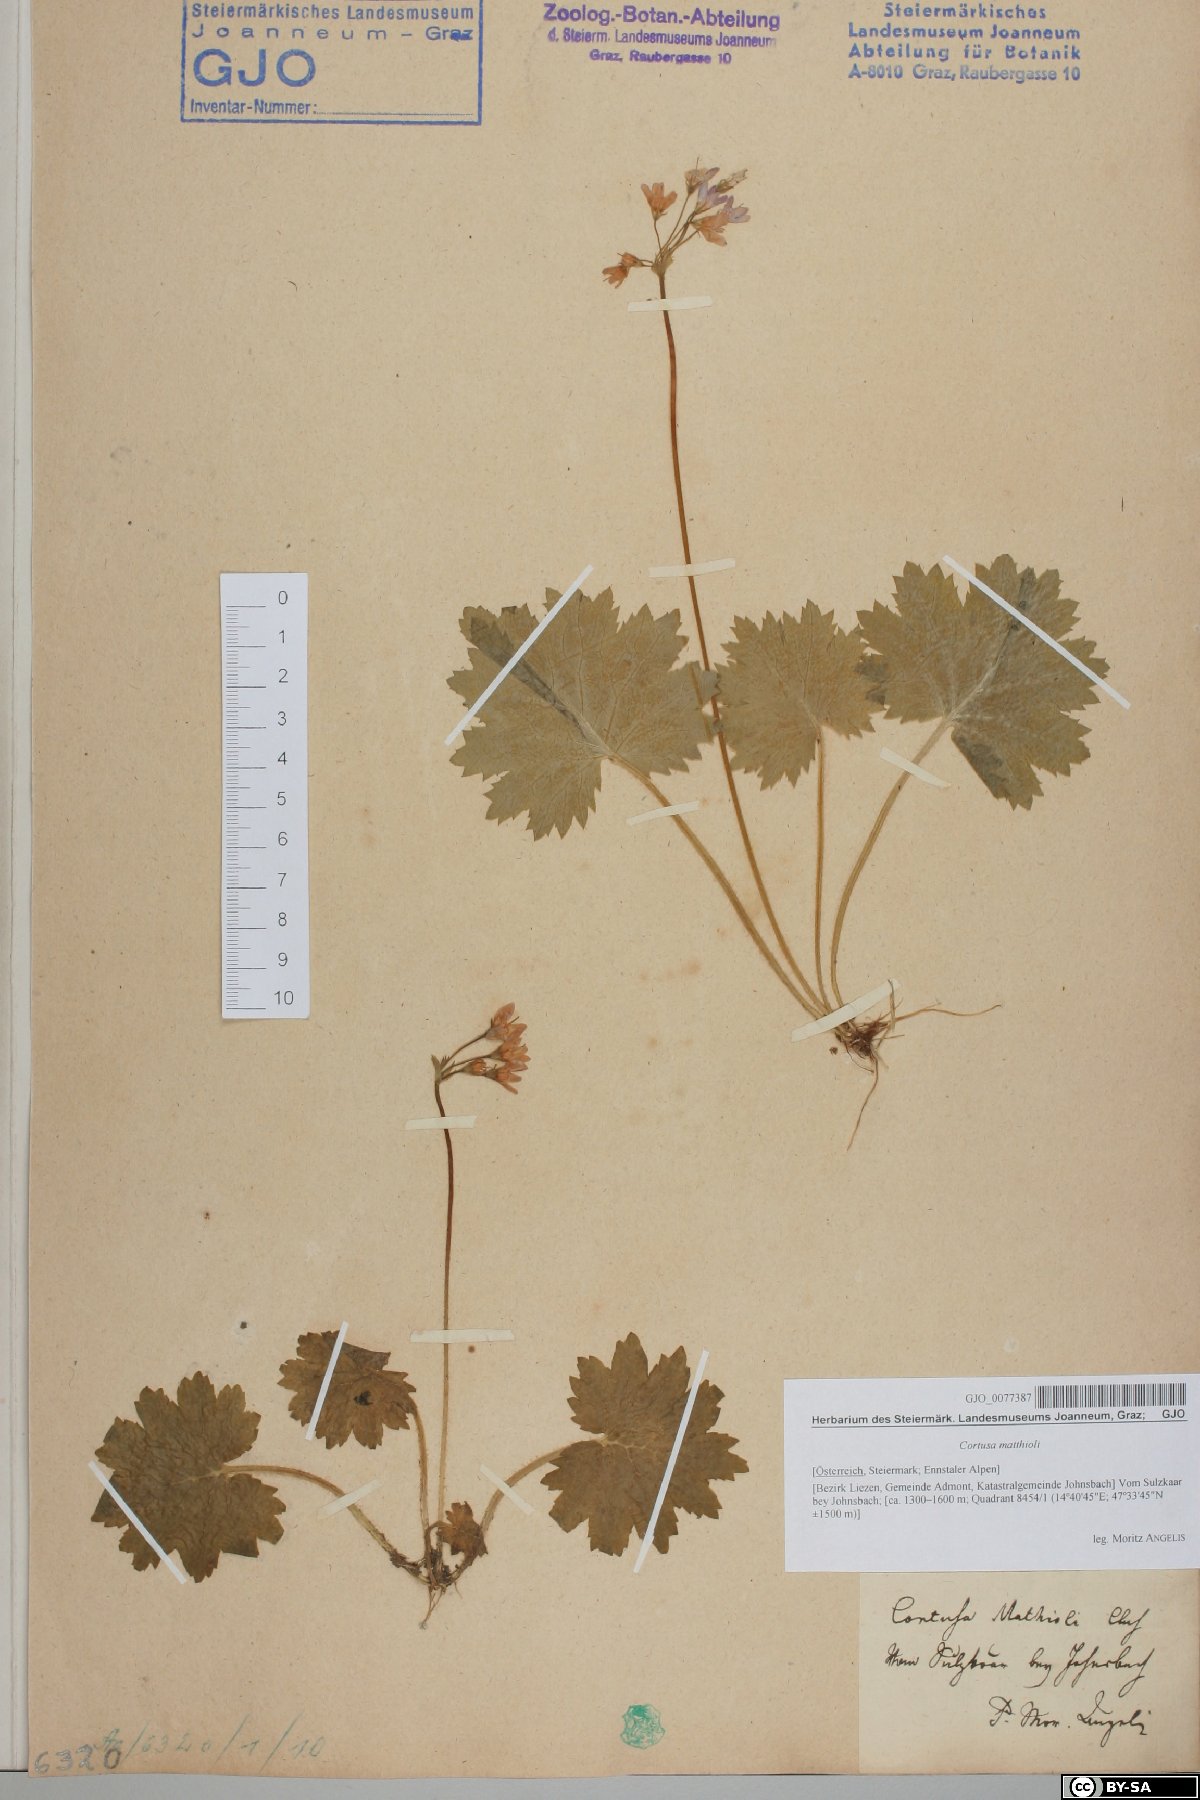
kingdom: Plantae
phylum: Tracheophyta
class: Magnoliopsida
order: Ericales
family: Primulaceae
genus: Primula
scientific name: Primula matthioli
